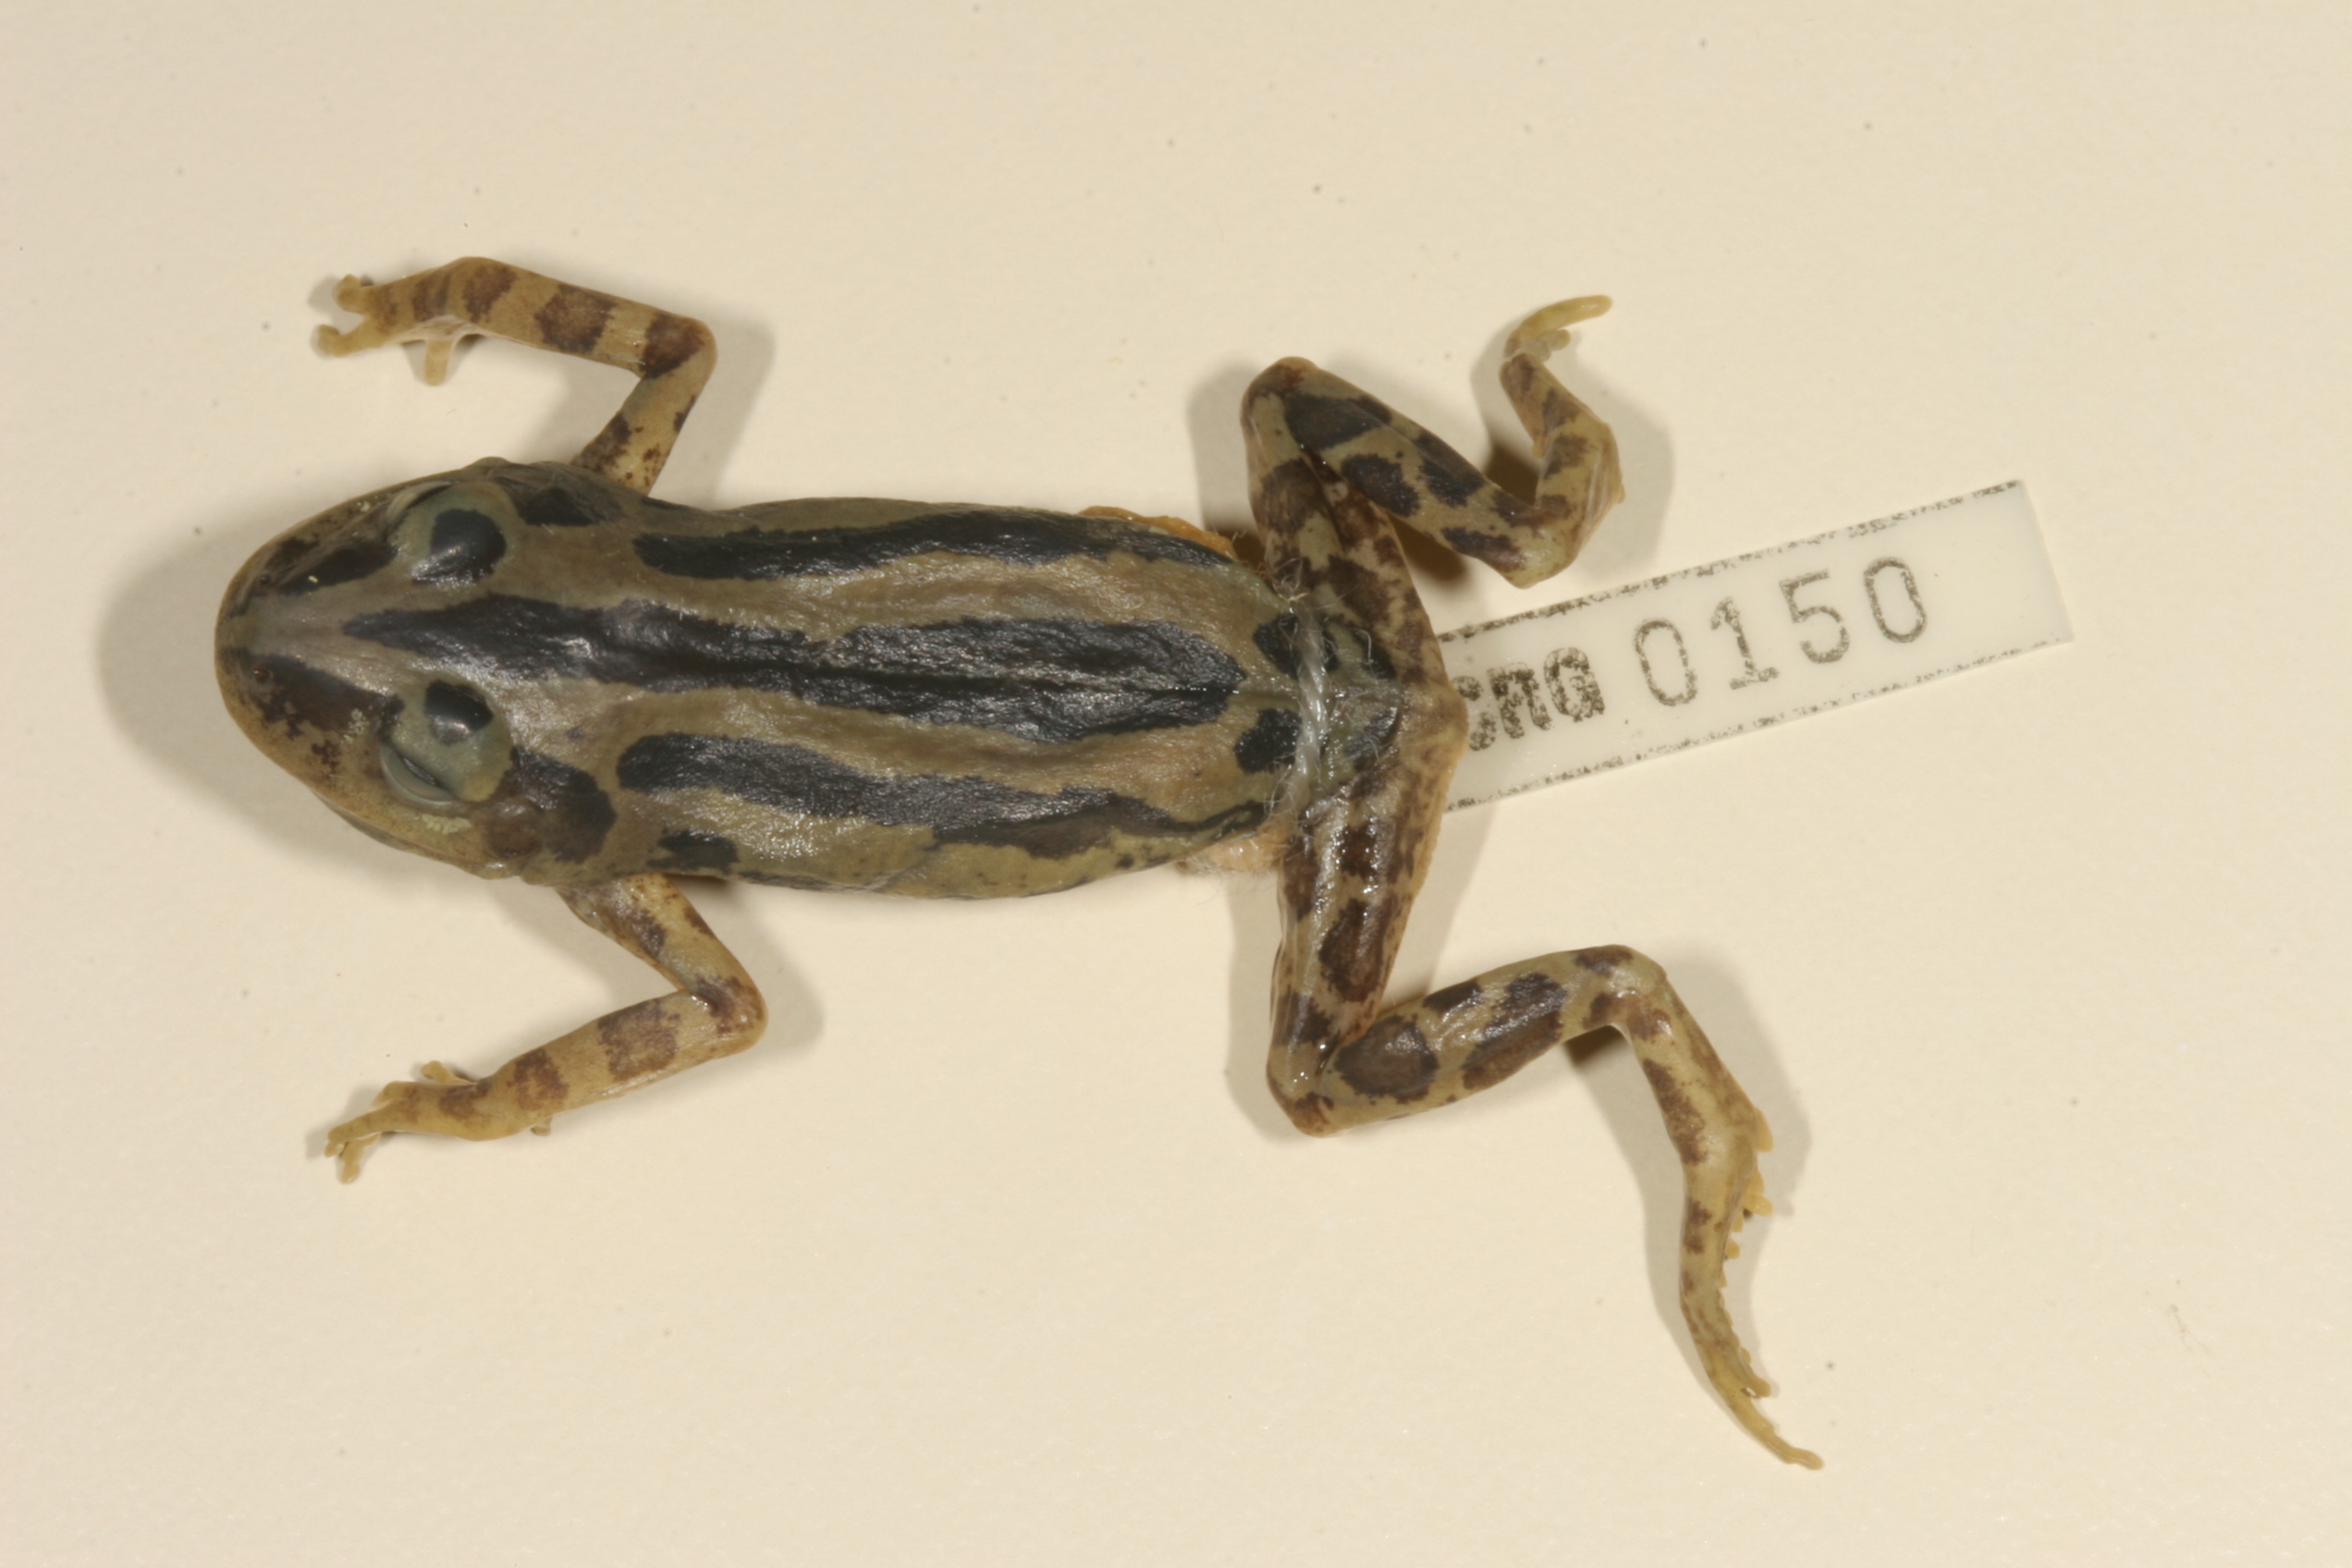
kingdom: Animalia
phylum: Chordata
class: Amphibia
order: Anura
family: Hyperoliidae
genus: Kassina
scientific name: Kassina senegalensis
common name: Senegal land frog
